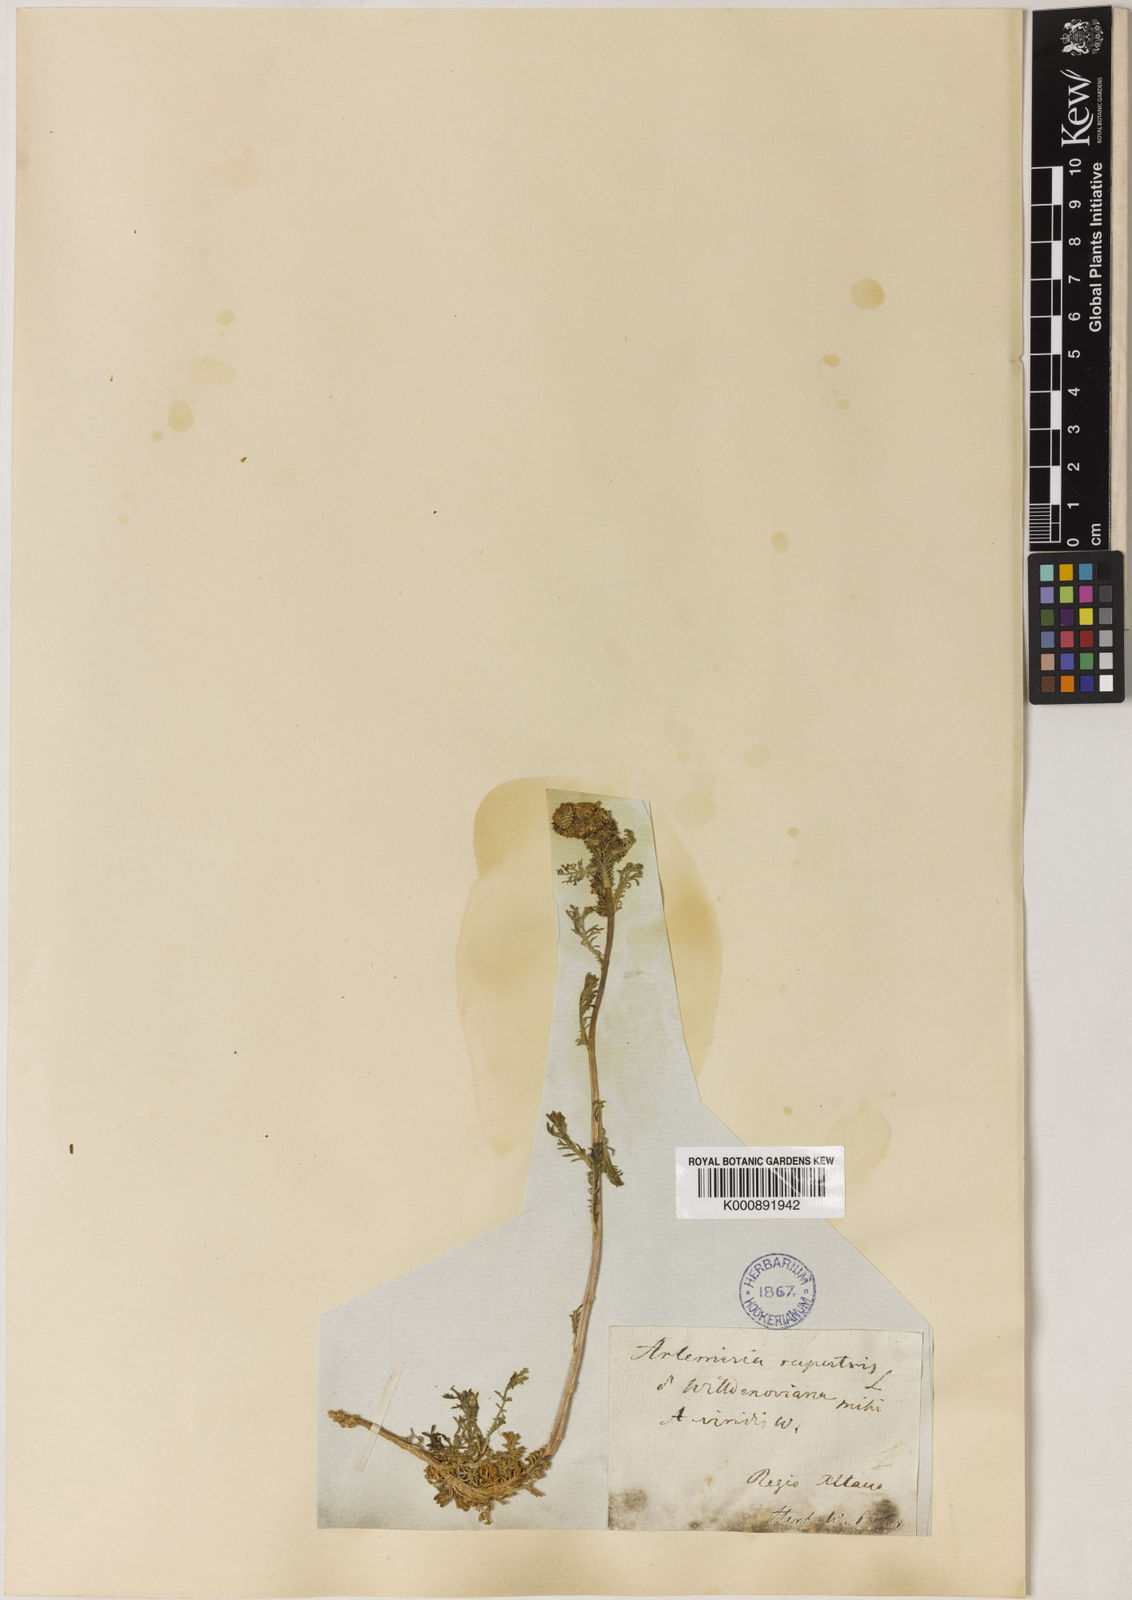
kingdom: Plantae
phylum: Tracheophyta
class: Magnoliopsida
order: Asterales
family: Asteraceae
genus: Artemisia
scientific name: Artemisia rupestris
